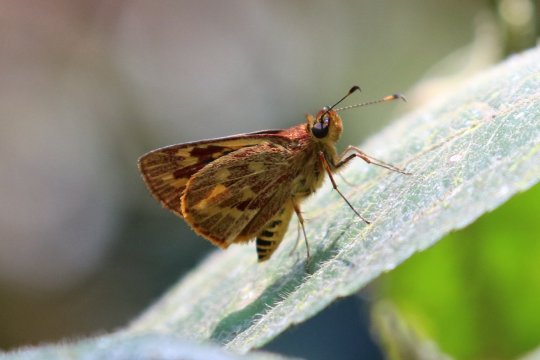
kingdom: Animalia
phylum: Arthropoda
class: Insecta
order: Lepidoptera
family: Hesperiidae
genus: Lento
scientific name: Lento krexoides
